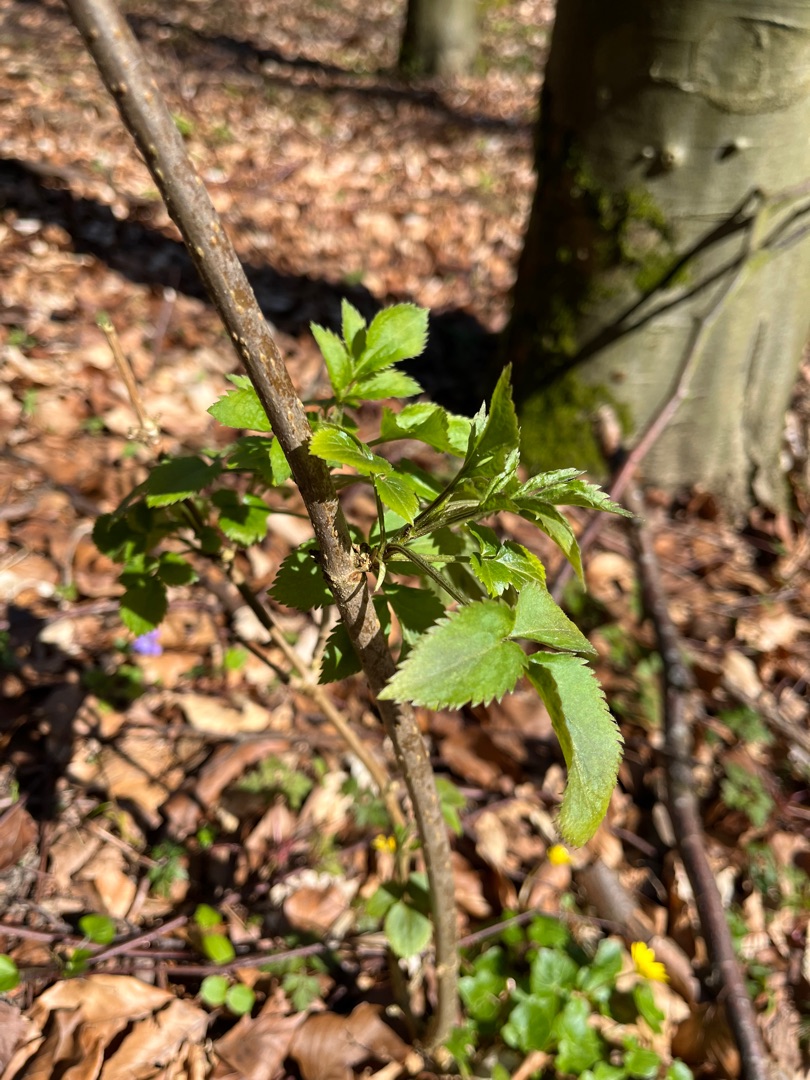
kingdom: Plantae
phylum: Tracheophyta
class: Magnoliopsida
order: Dipsacales
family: Viburnaceae
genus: Sambucus
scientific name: Sambucus nigra
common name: Almindelig hyld
